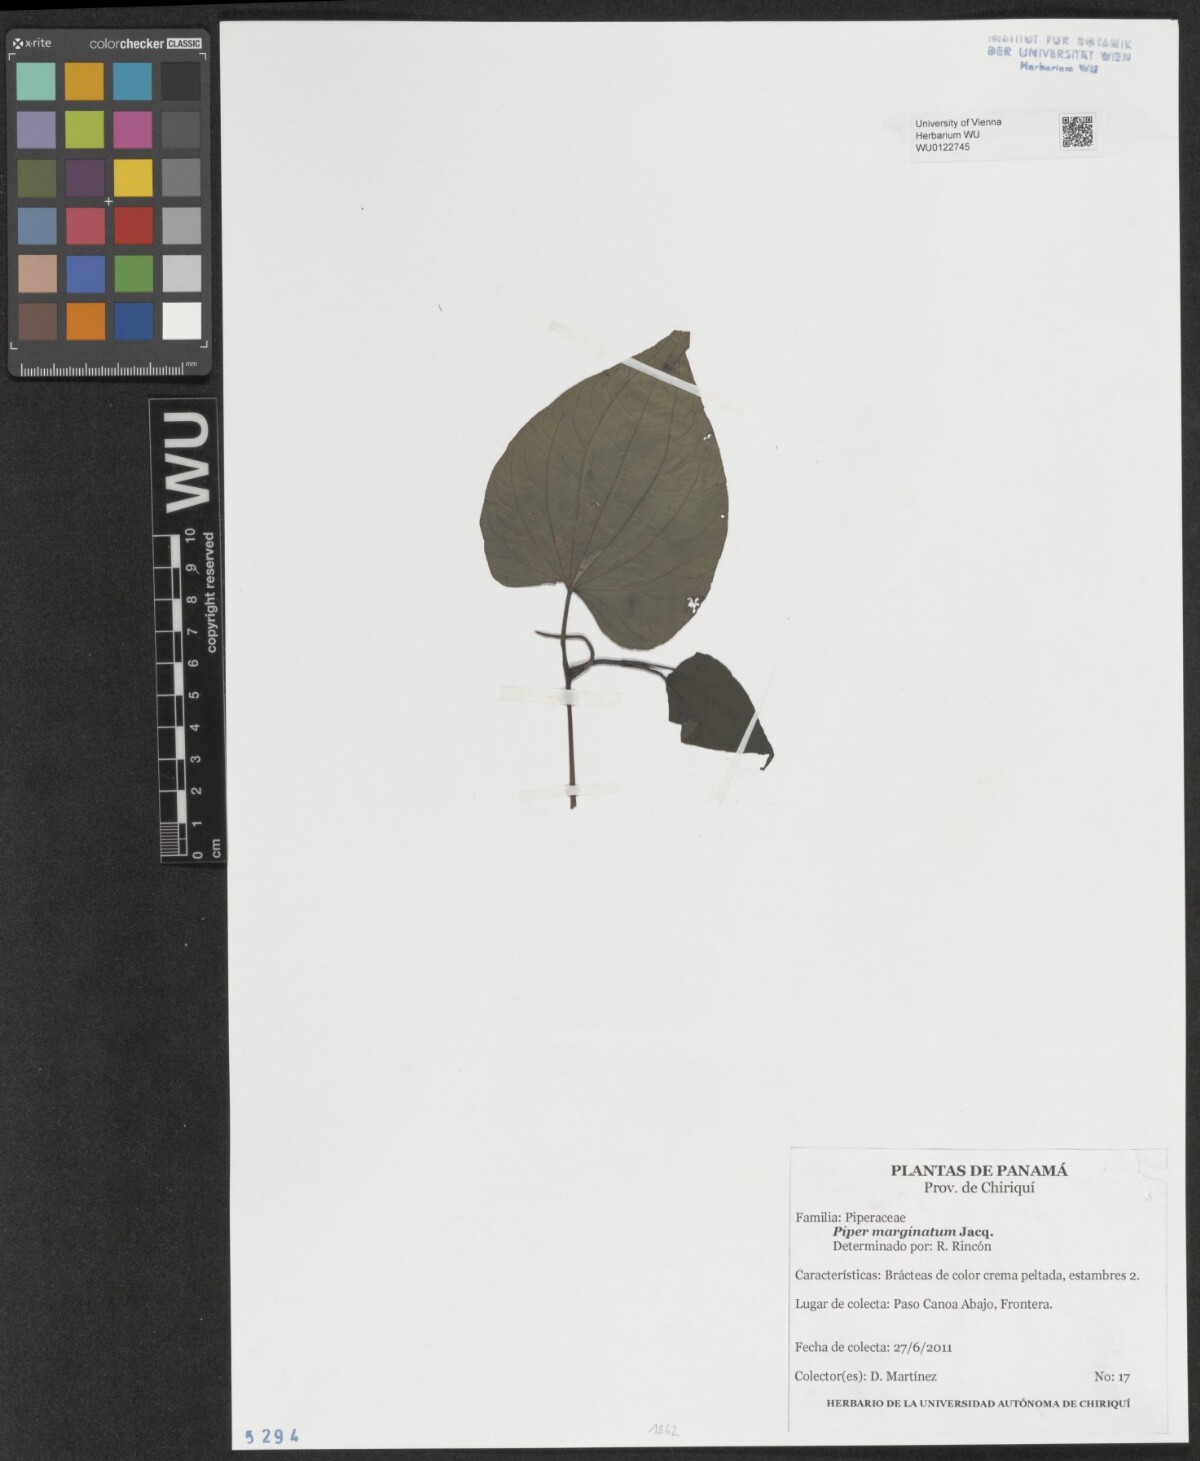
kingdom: Plantae
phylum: Tracheophyta
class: Magnoliopsida
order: Piperales
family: Piperaceae
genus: Piper
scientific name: Piper marginatum
